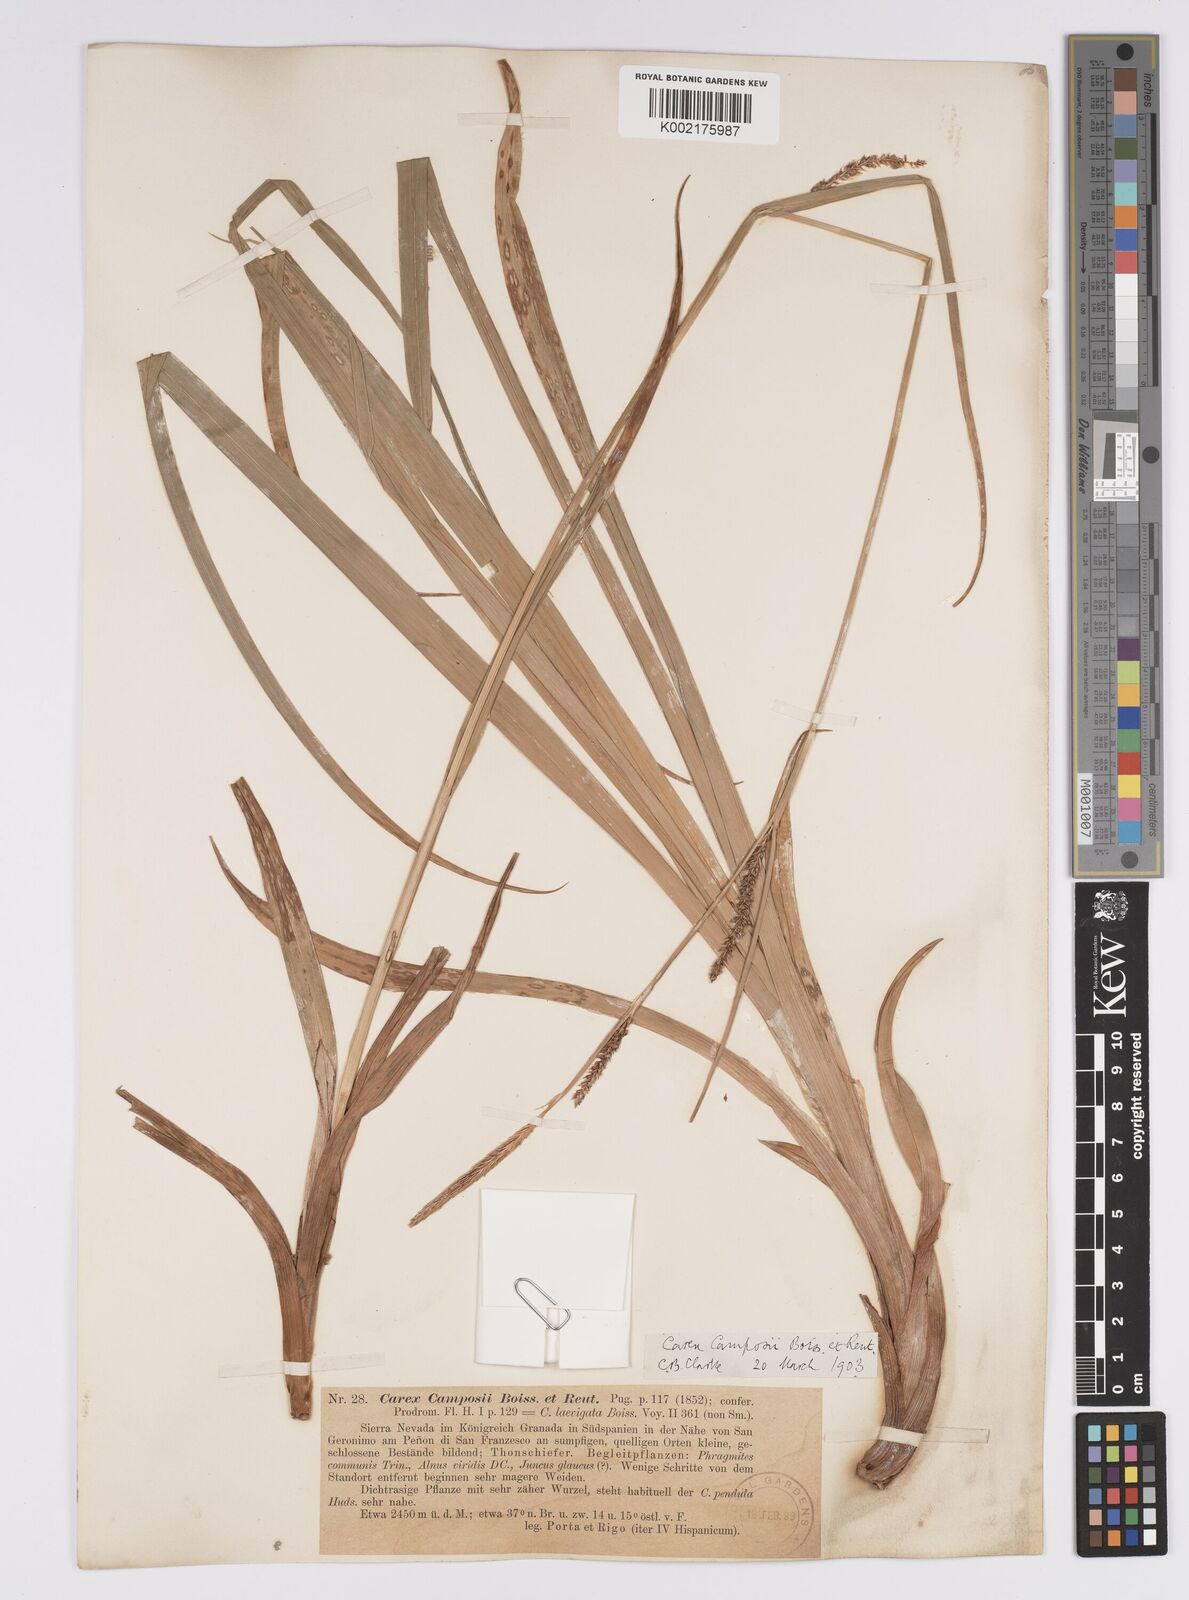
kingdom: Plantae
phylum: Tracheophyta
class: Liliopsida
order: Poales
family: Cyperaceae
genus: Carex
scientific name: Carex camposii
